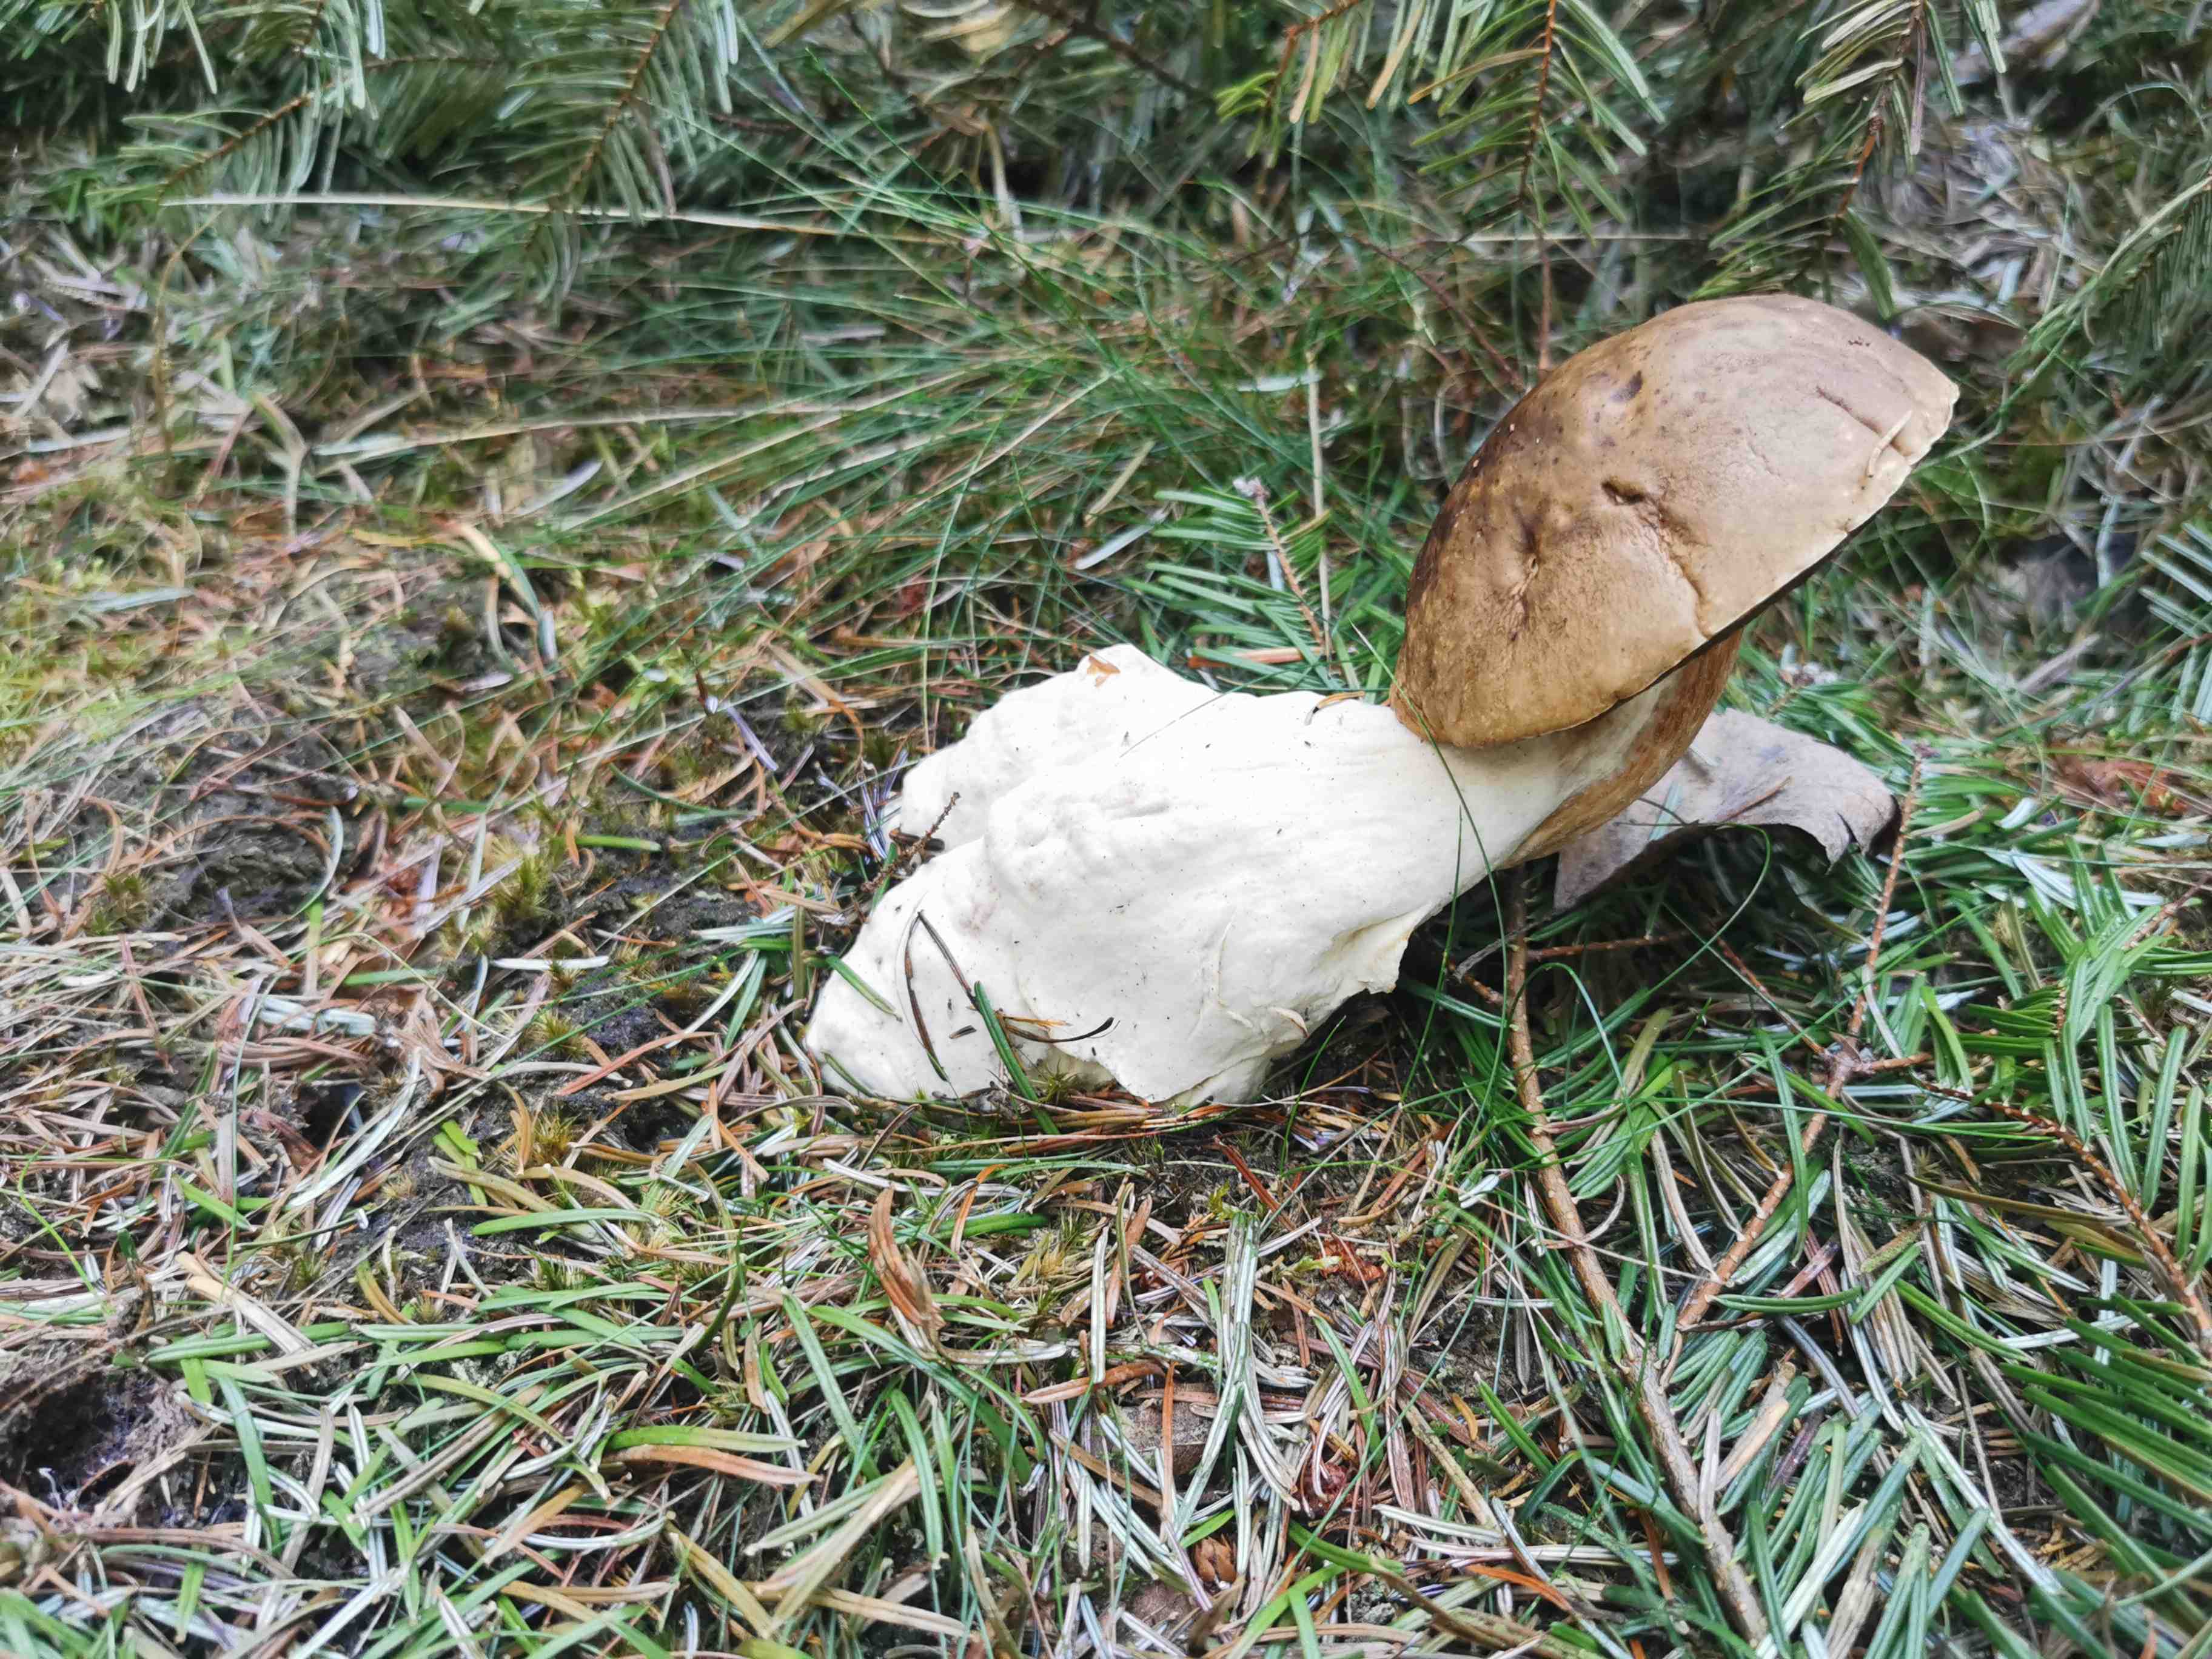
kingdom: Fungi
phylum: Basidiomycota
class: Agaricomycetes
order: Boletales
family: Boletaceae
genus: Boletus
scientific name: Boletus edulis
